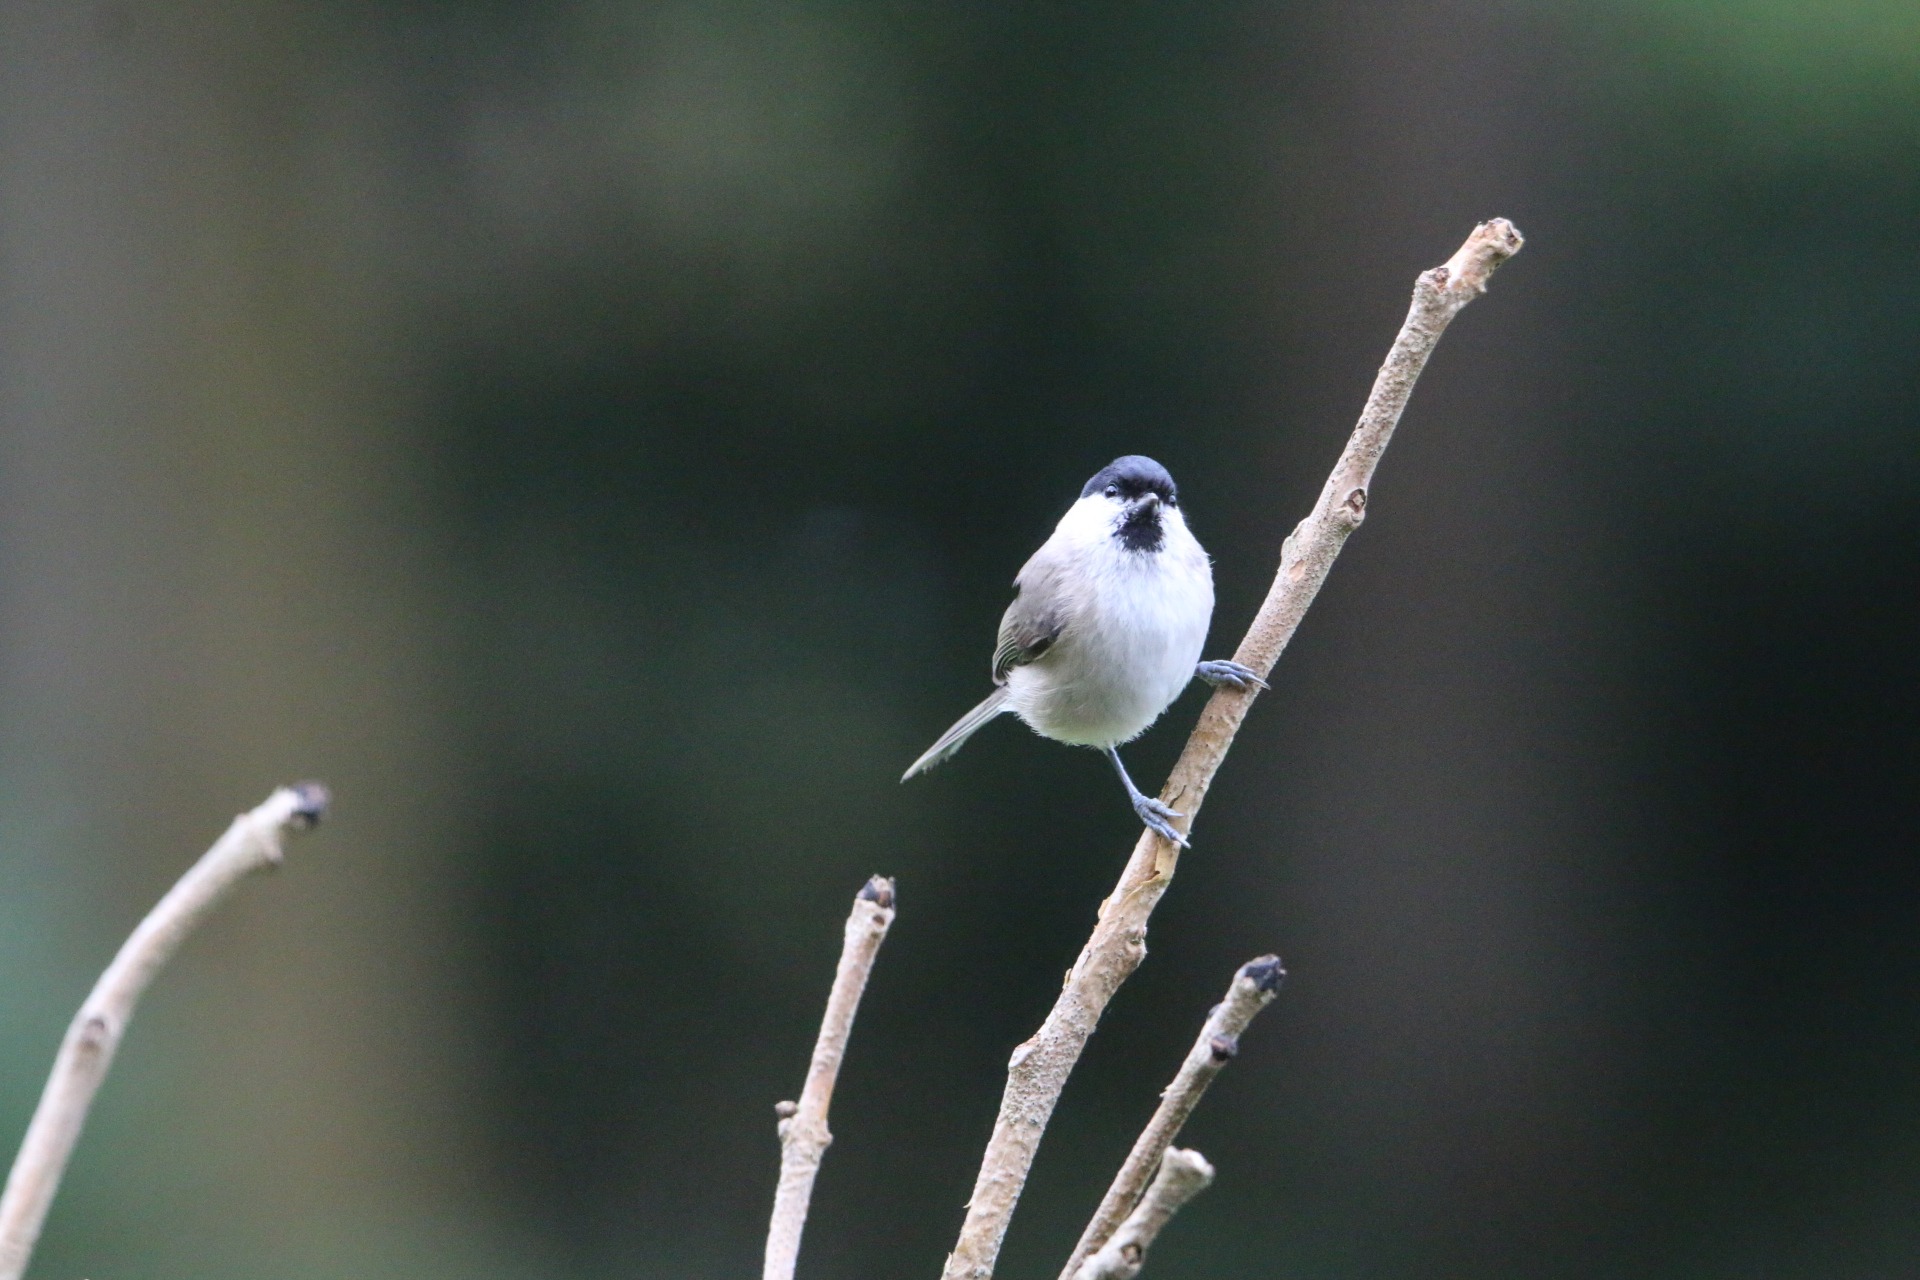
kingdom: Animalia
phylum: Chordata
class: Aves
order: Passeriformes
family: Paridae
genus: Poecile
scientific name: Poecile palustris
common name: Sumpmejse
